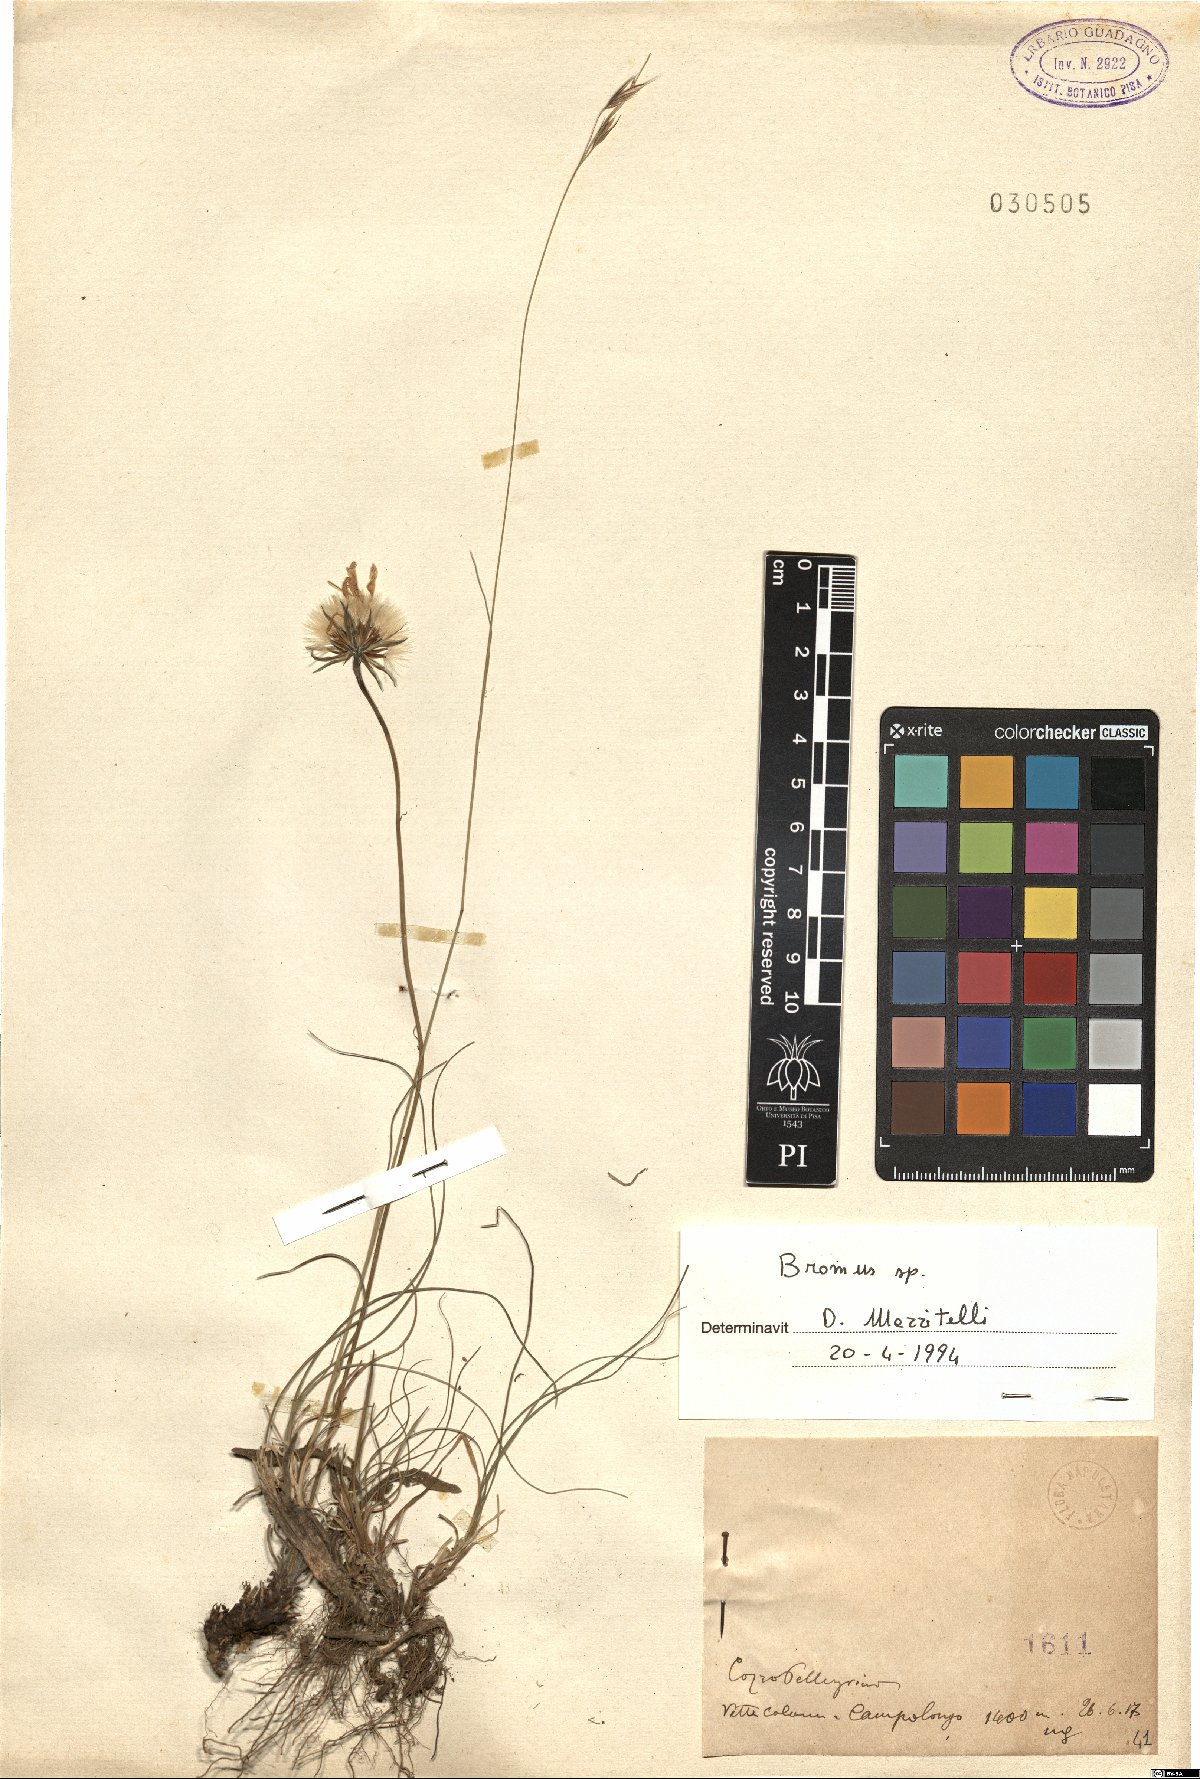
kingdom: Plantae
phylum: Tracheophyta
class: Liliopsida
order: Poales
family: Poaceae
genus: Bromus
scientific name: Bromus
